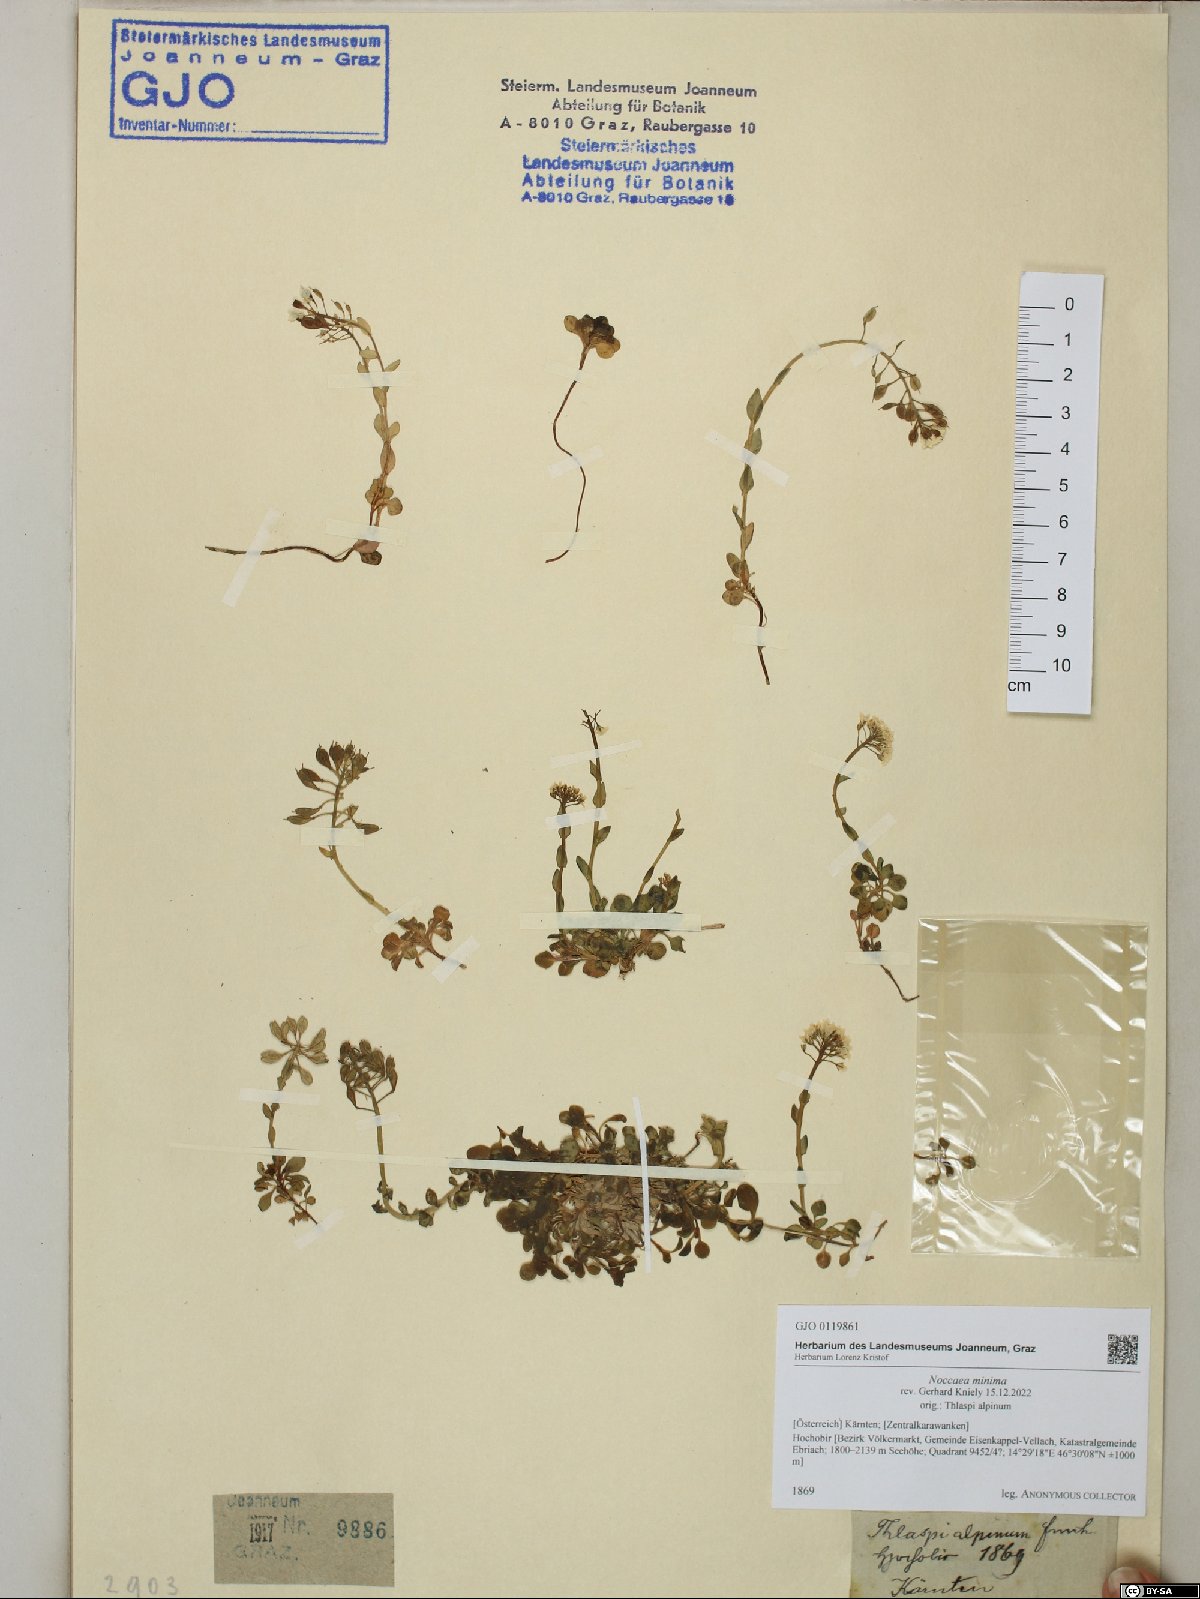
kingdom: Plantae
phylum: Tracheophyta
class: Magnoliopsida
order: Brassicales
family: Brassicaceae
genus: Noccaea
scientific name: Noccaea minima
